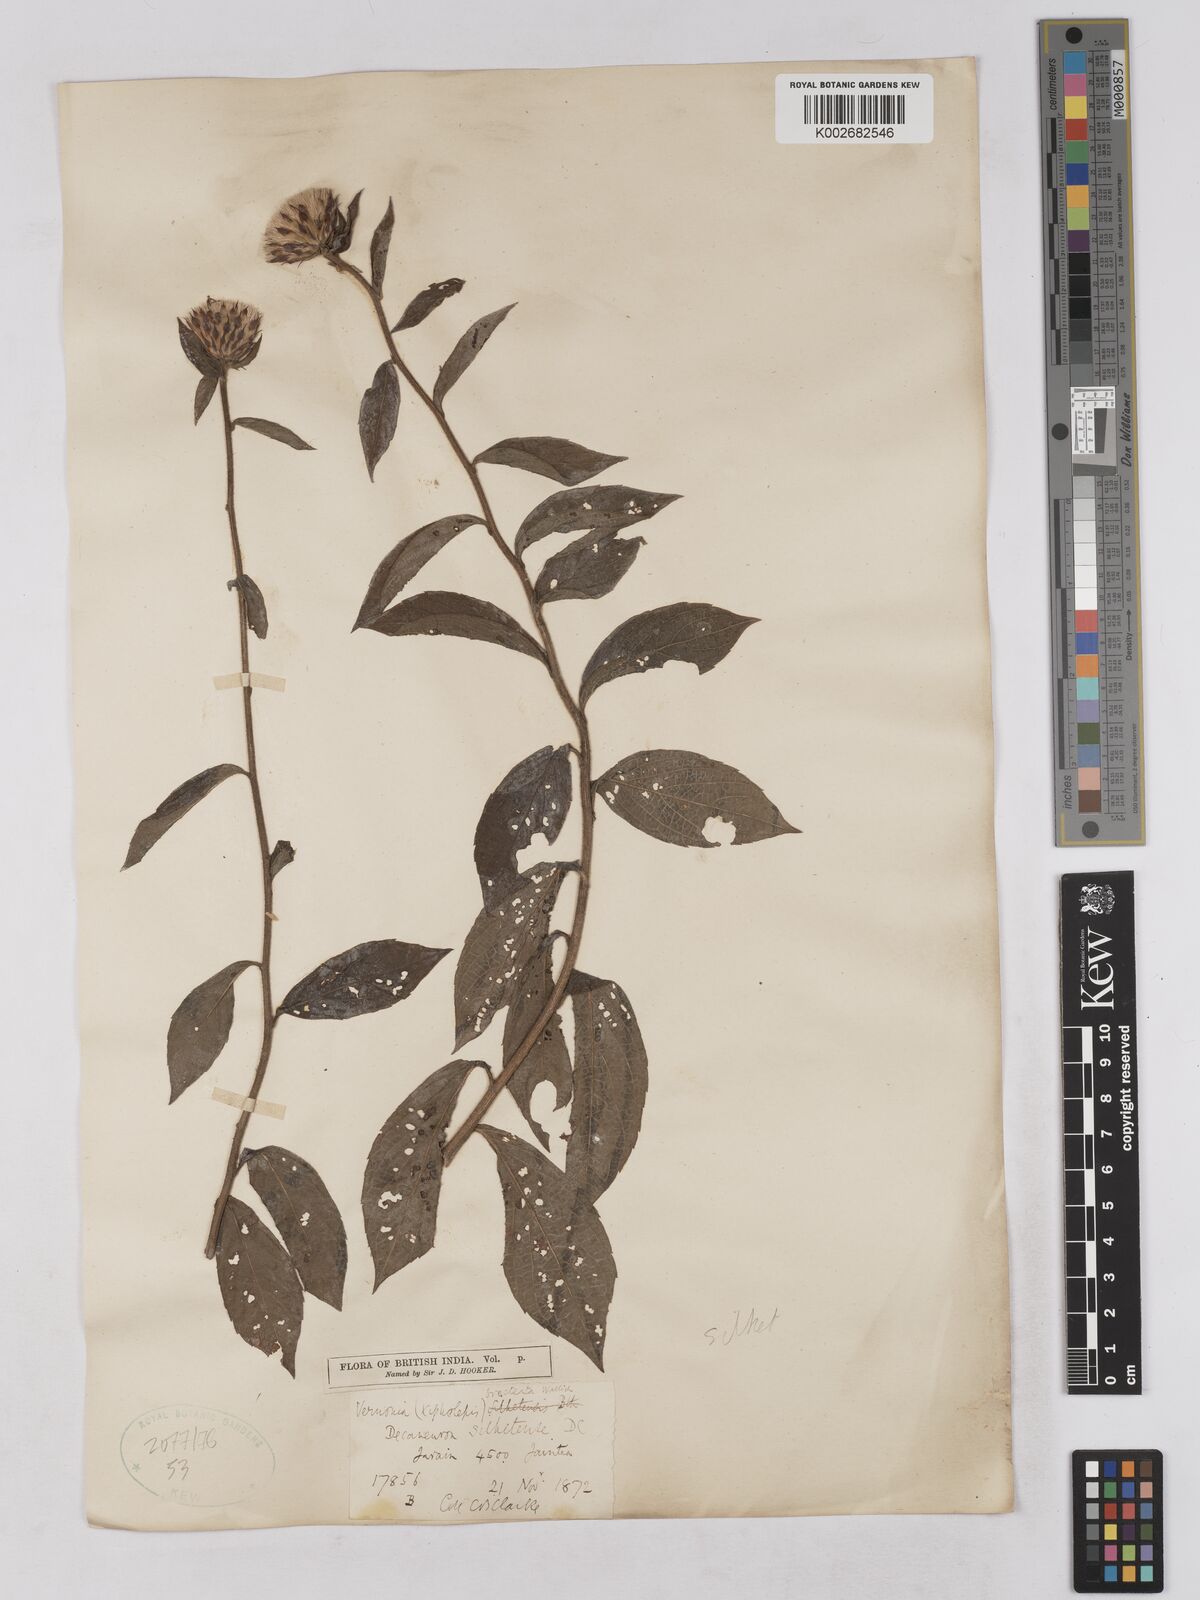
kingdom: Plantae
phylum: Tracheophyta
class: Magnoliopsida
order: Asterales
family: Asteraceae
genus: Acilepis
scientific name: Acilepis silhetensis
